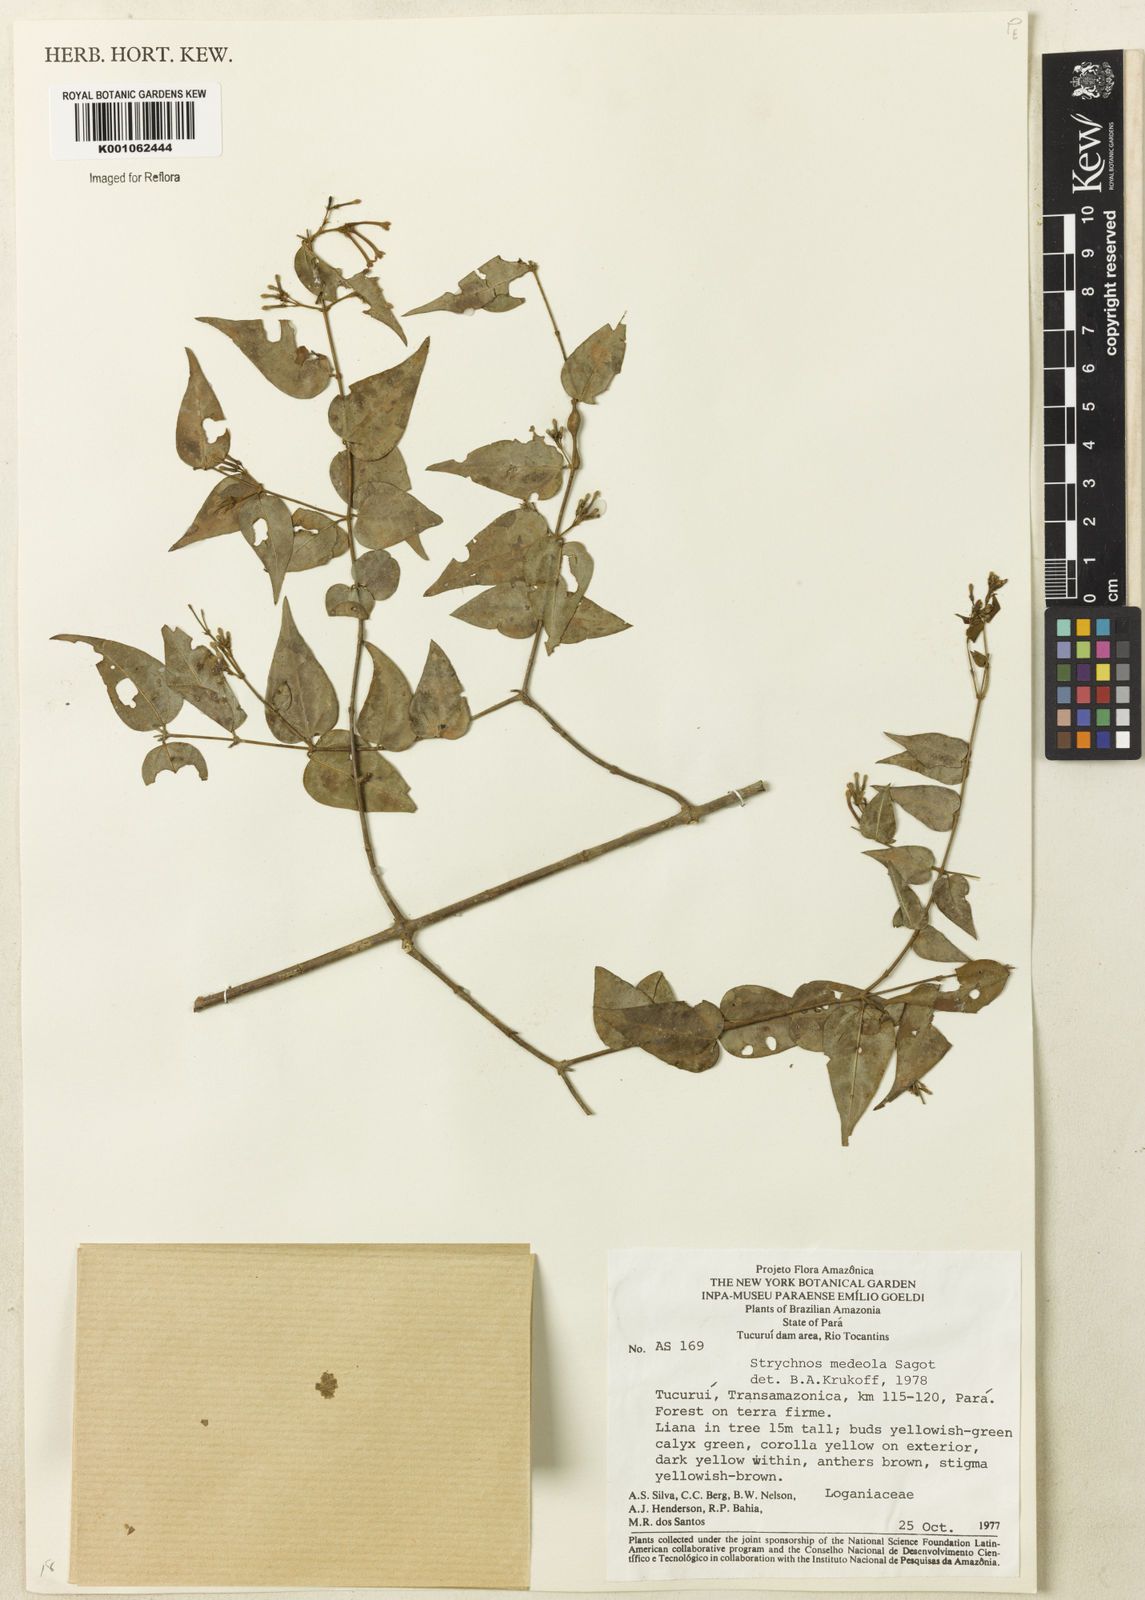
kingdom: Plantae
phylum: Tracheophyta
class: Magnoliopsida
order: Gentianales
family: Loganiaceae
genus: Strychnos
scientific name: Strychnos medeola
